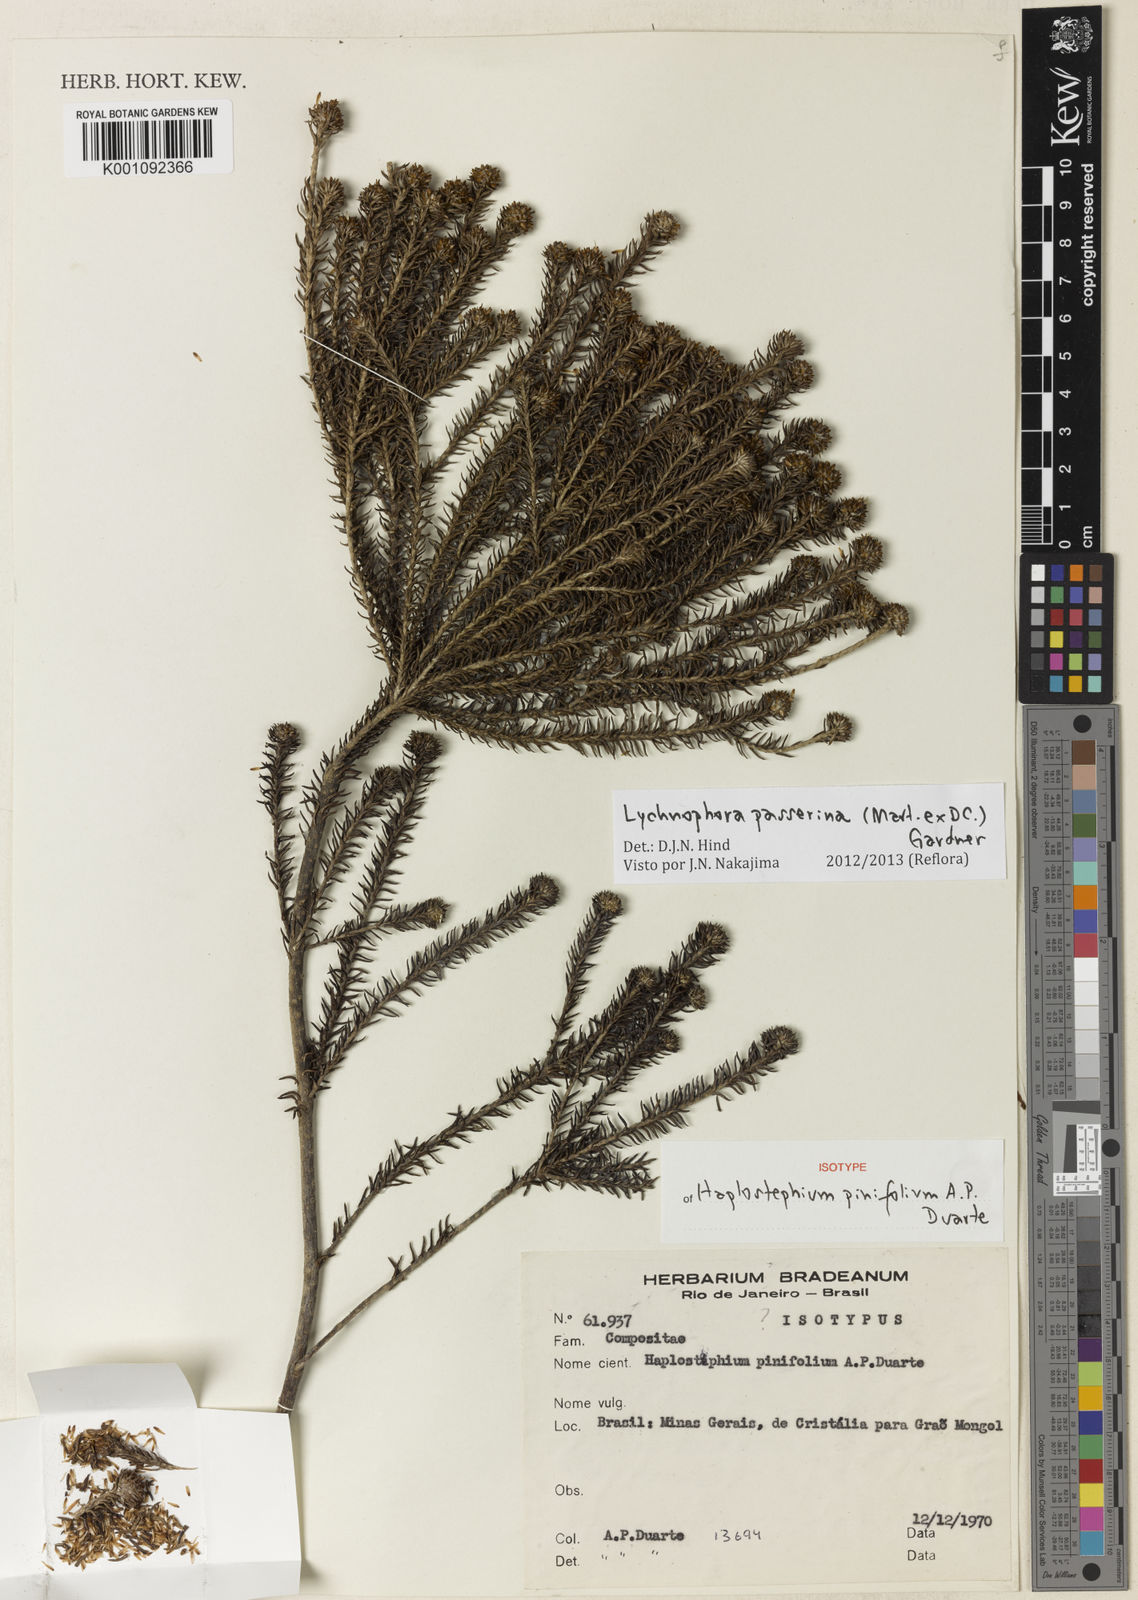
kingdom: Plantae
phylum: Tracheophyta
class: Magnoliopsida
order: Asterales
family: Asteraceae
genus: Lychnophora
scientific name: Lychnophora passerina
